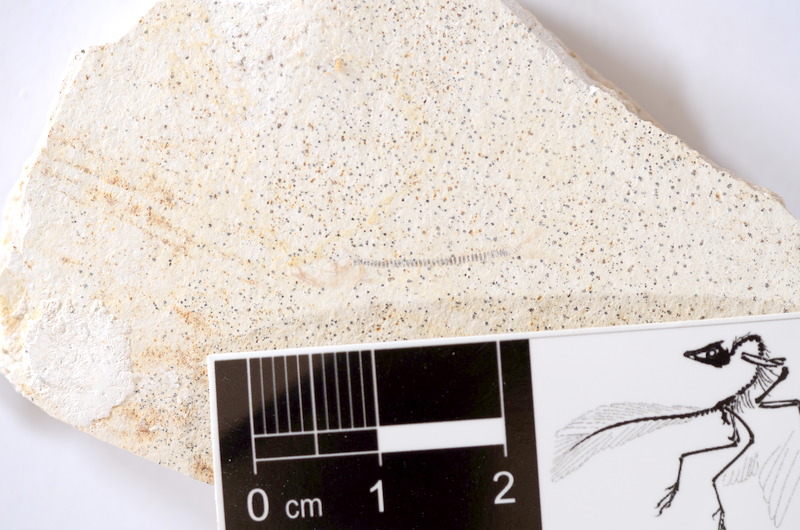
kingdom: Animalia
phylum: Chordata
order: Salmoniformes
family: Orthogonikleithridae
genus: Orthogonikleithrus
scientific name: Orthogonikleithrus hoelli
